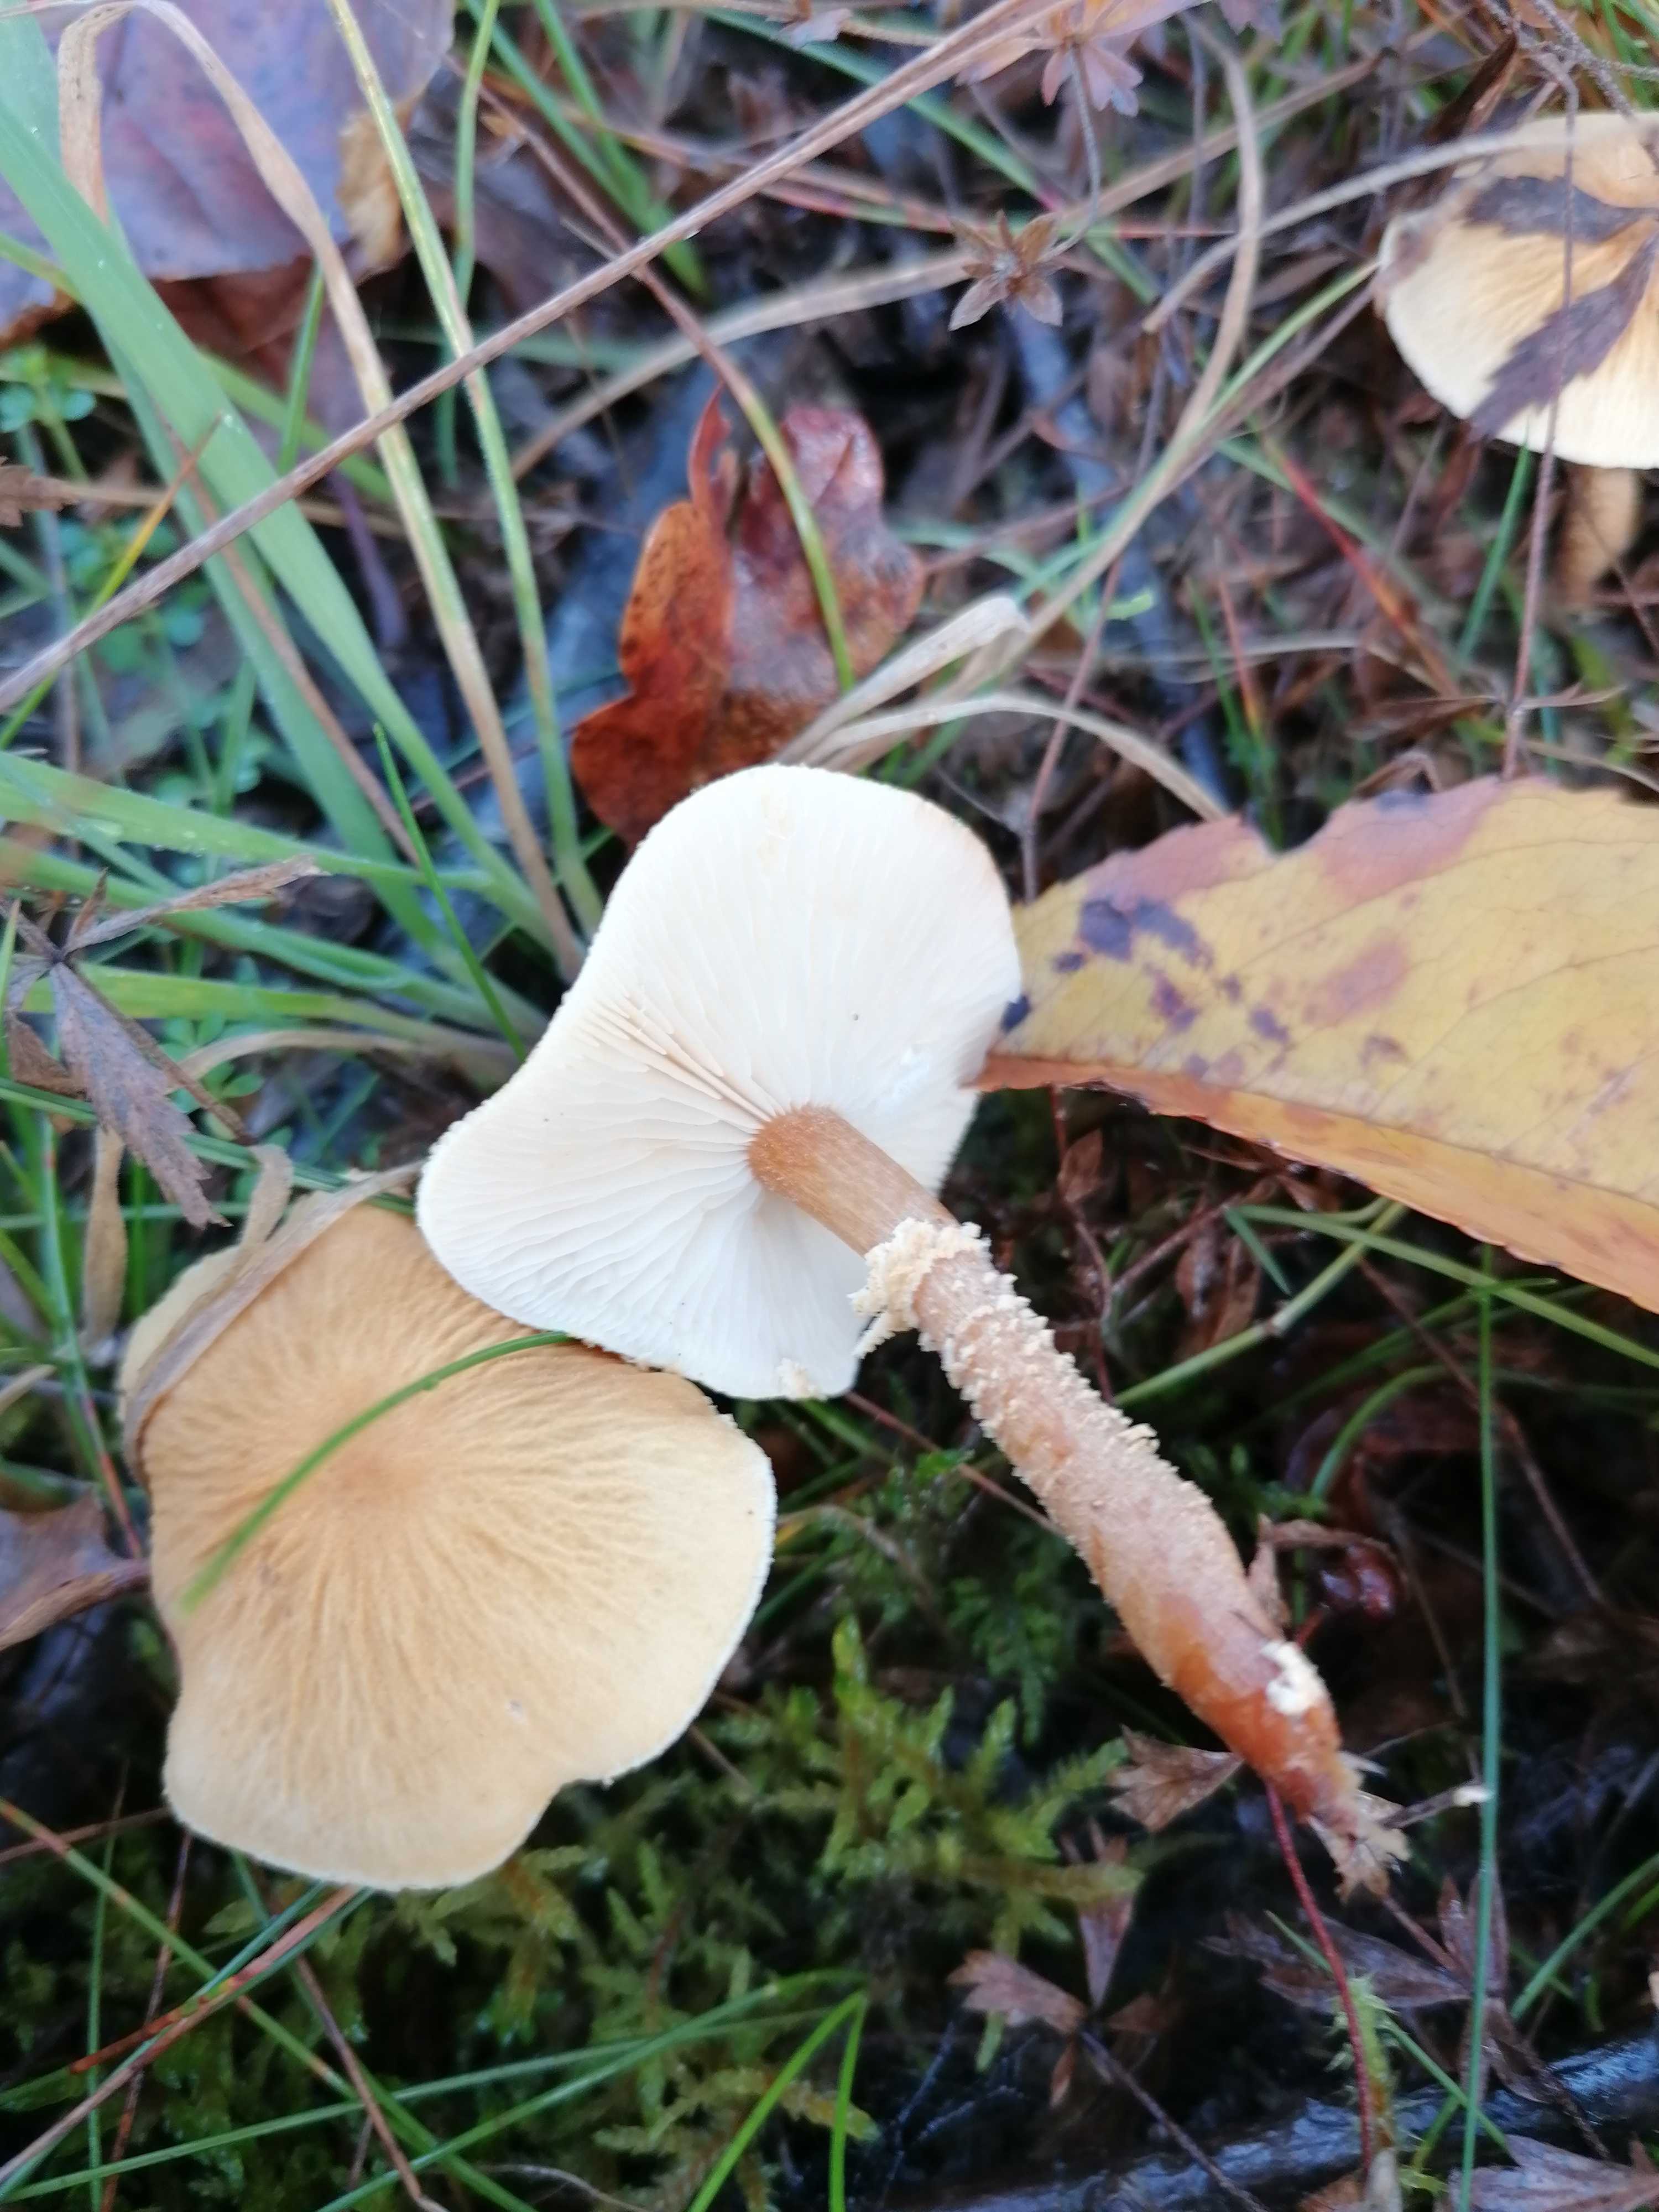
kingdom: Fungi
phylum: Basidiomycota
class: Agaricomycetes
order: Agaricales
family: Tricholomataceae
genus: Cystoderma
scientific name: Cystoderma amianthinum
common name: okkergul grynhat
